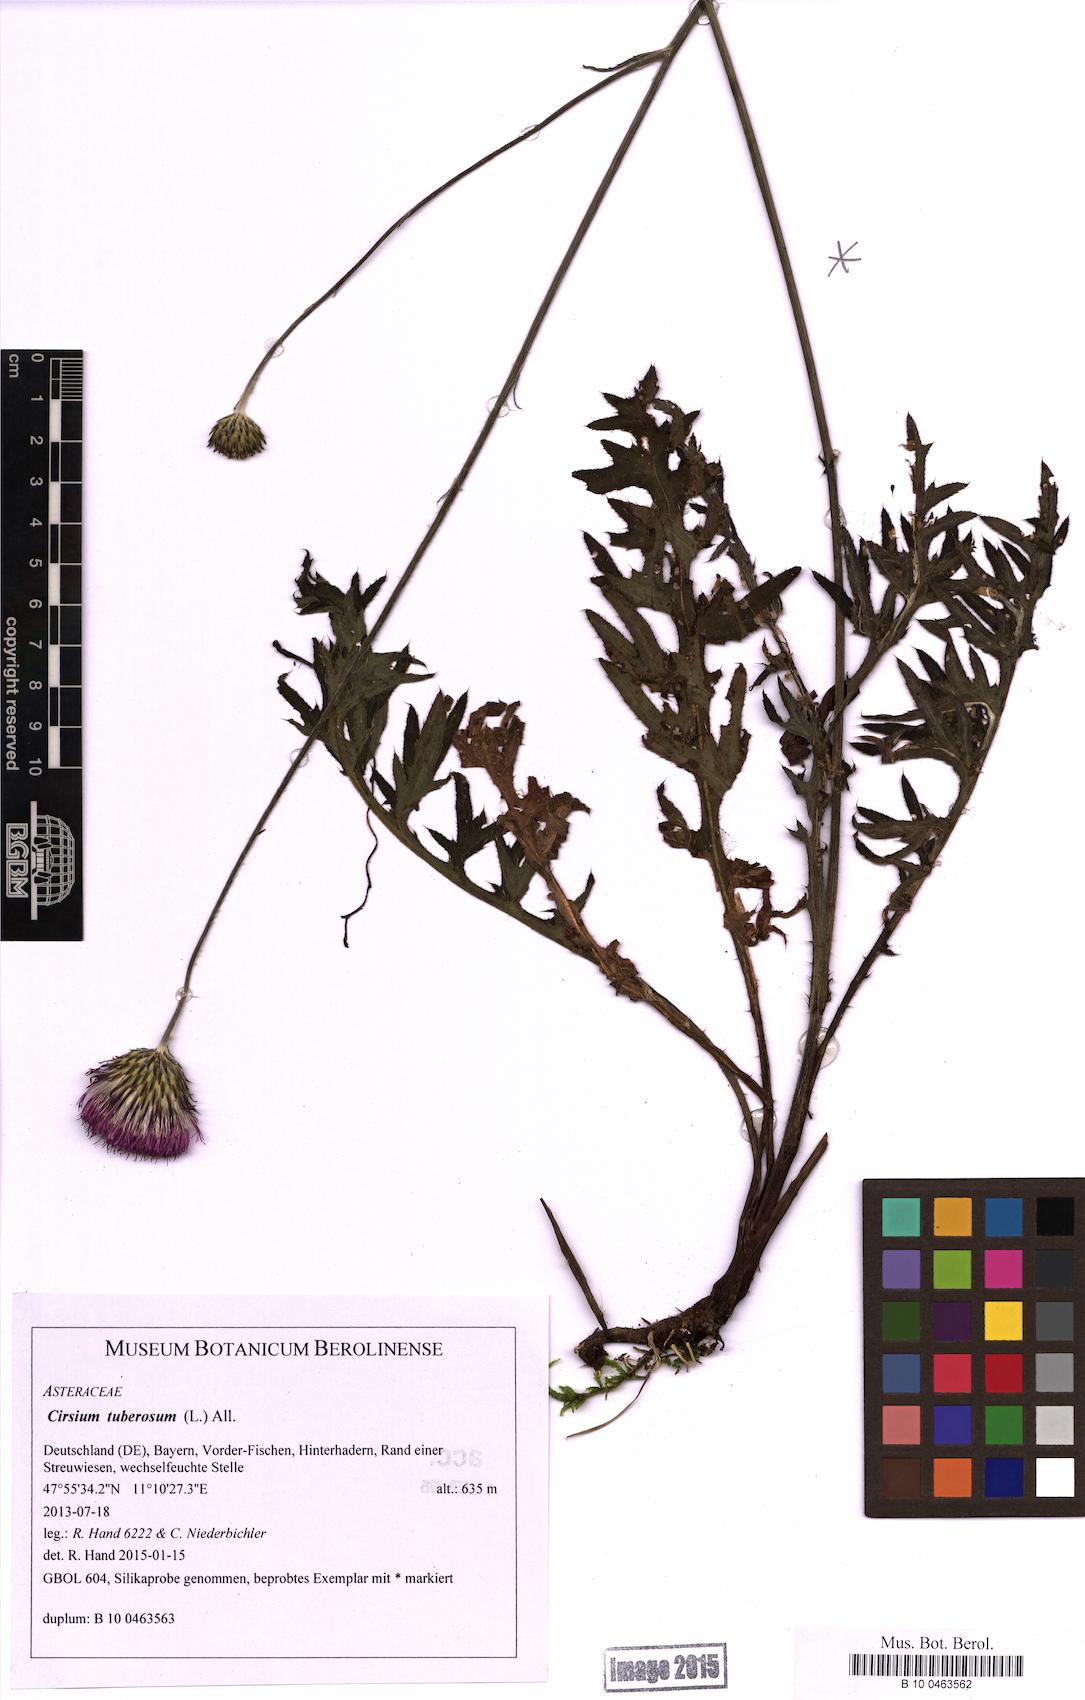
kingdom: Plantae
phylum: Tracheophyta
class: Magnoliopsida
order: Asterales
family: Asteraceae
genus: Cirsium
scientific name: Cirsium tuberosum
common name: Tuberous thistle
